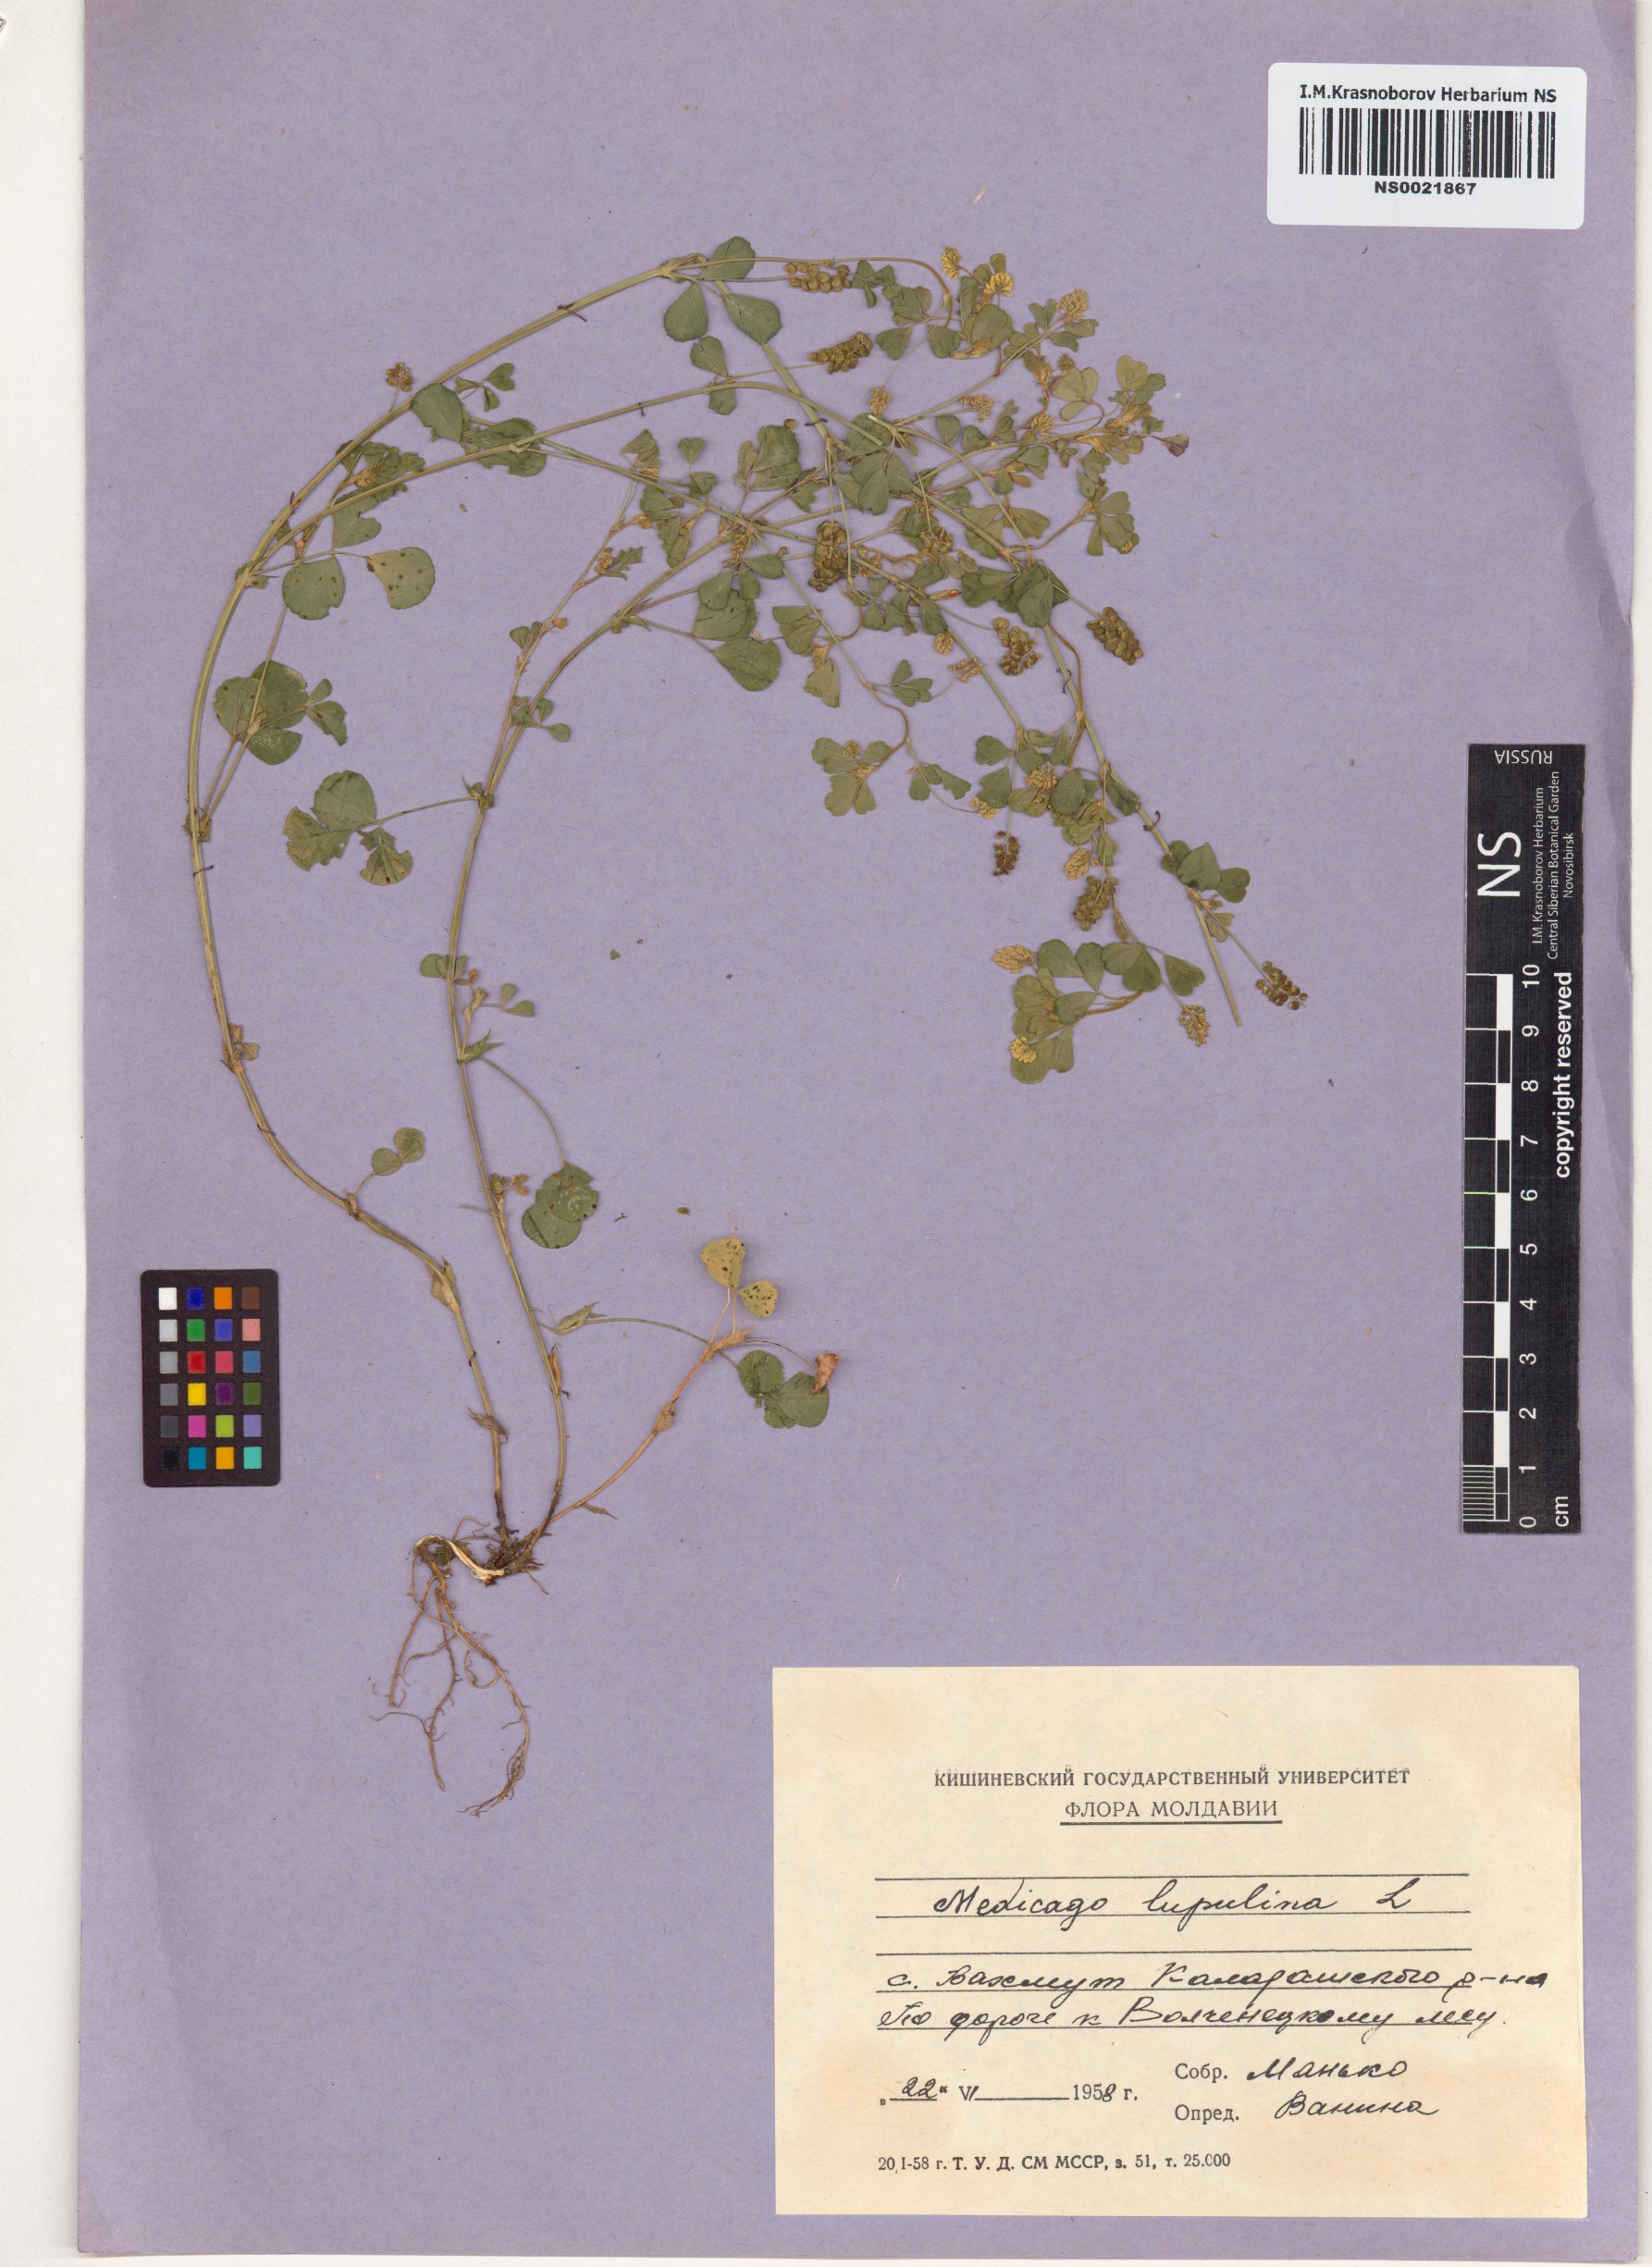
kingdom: Plantae
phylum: Tracheophyta
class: Magnoliopsida
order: Fabales
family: Fabaceae
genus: Medicago
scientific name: Medicago lupulina
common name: Black medick
